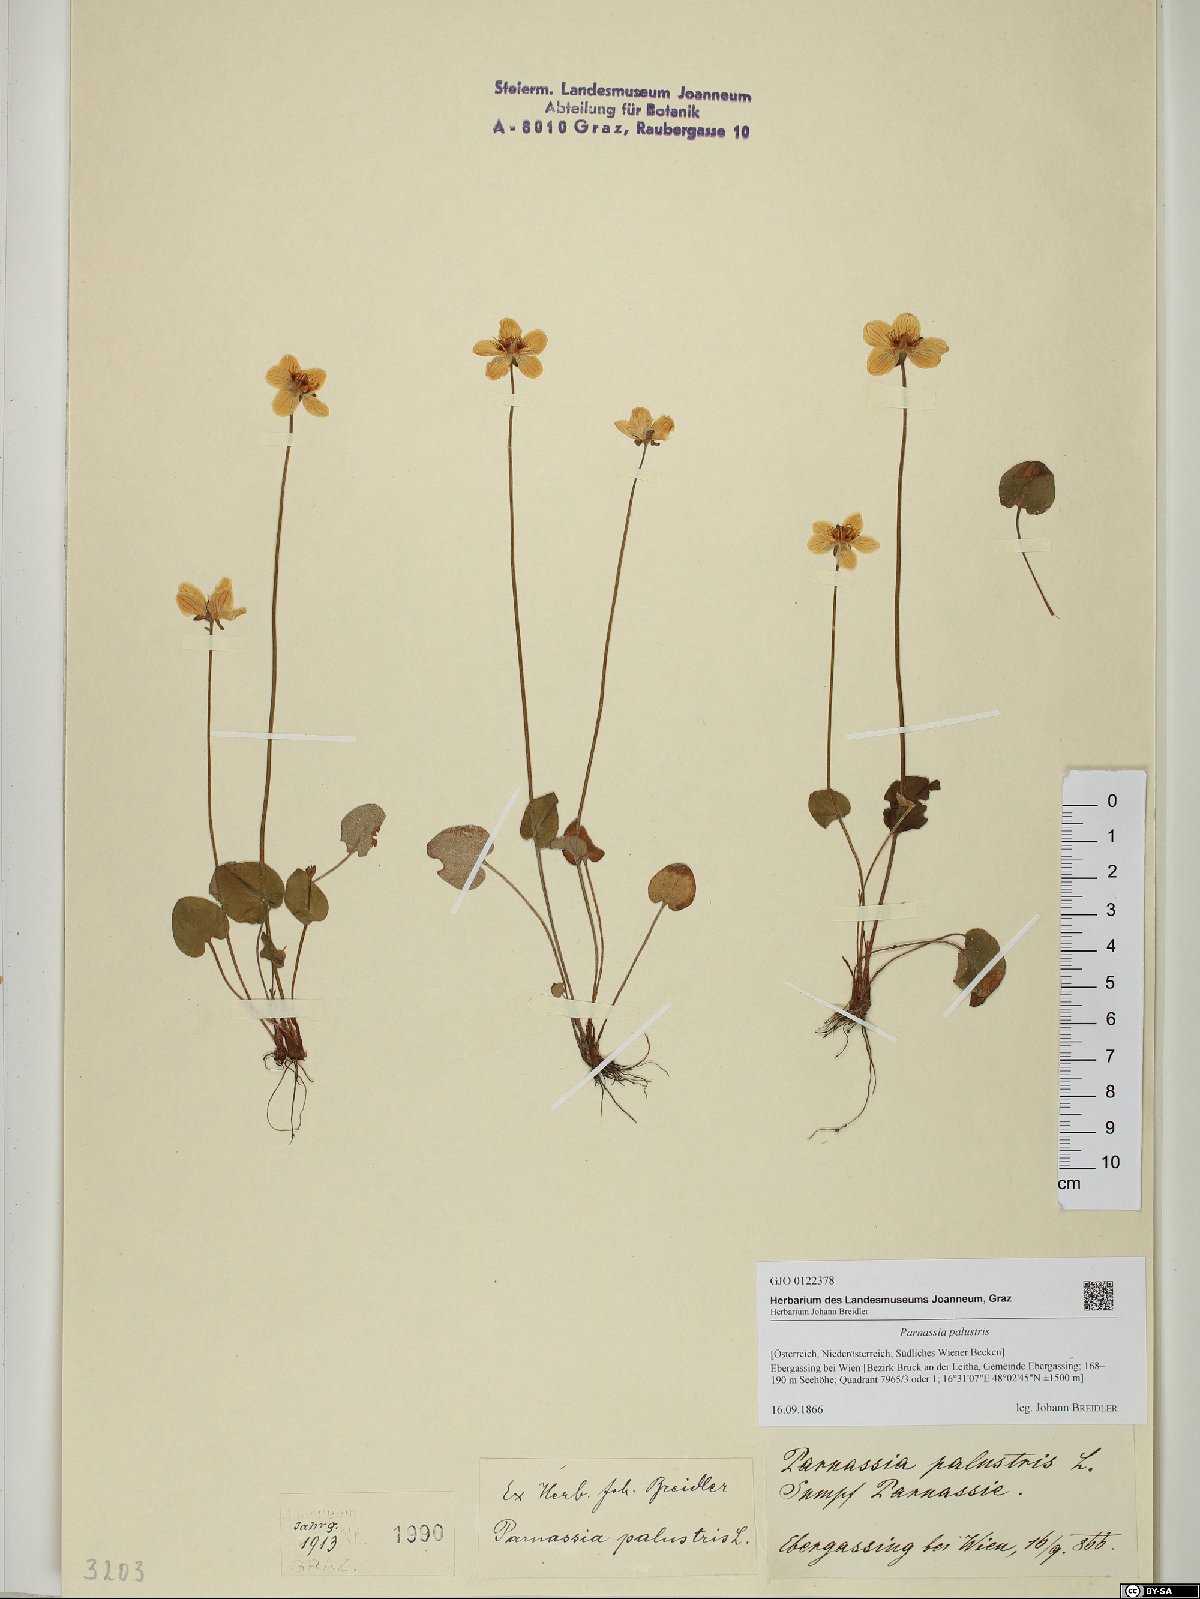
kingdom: Plantae
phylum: Tracheophyta
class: Magnoliopsida
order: Celastrales
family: Parnassiaceae
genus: Parnassia
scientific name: Parnassia palustris
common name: Grass-of-parnassus
